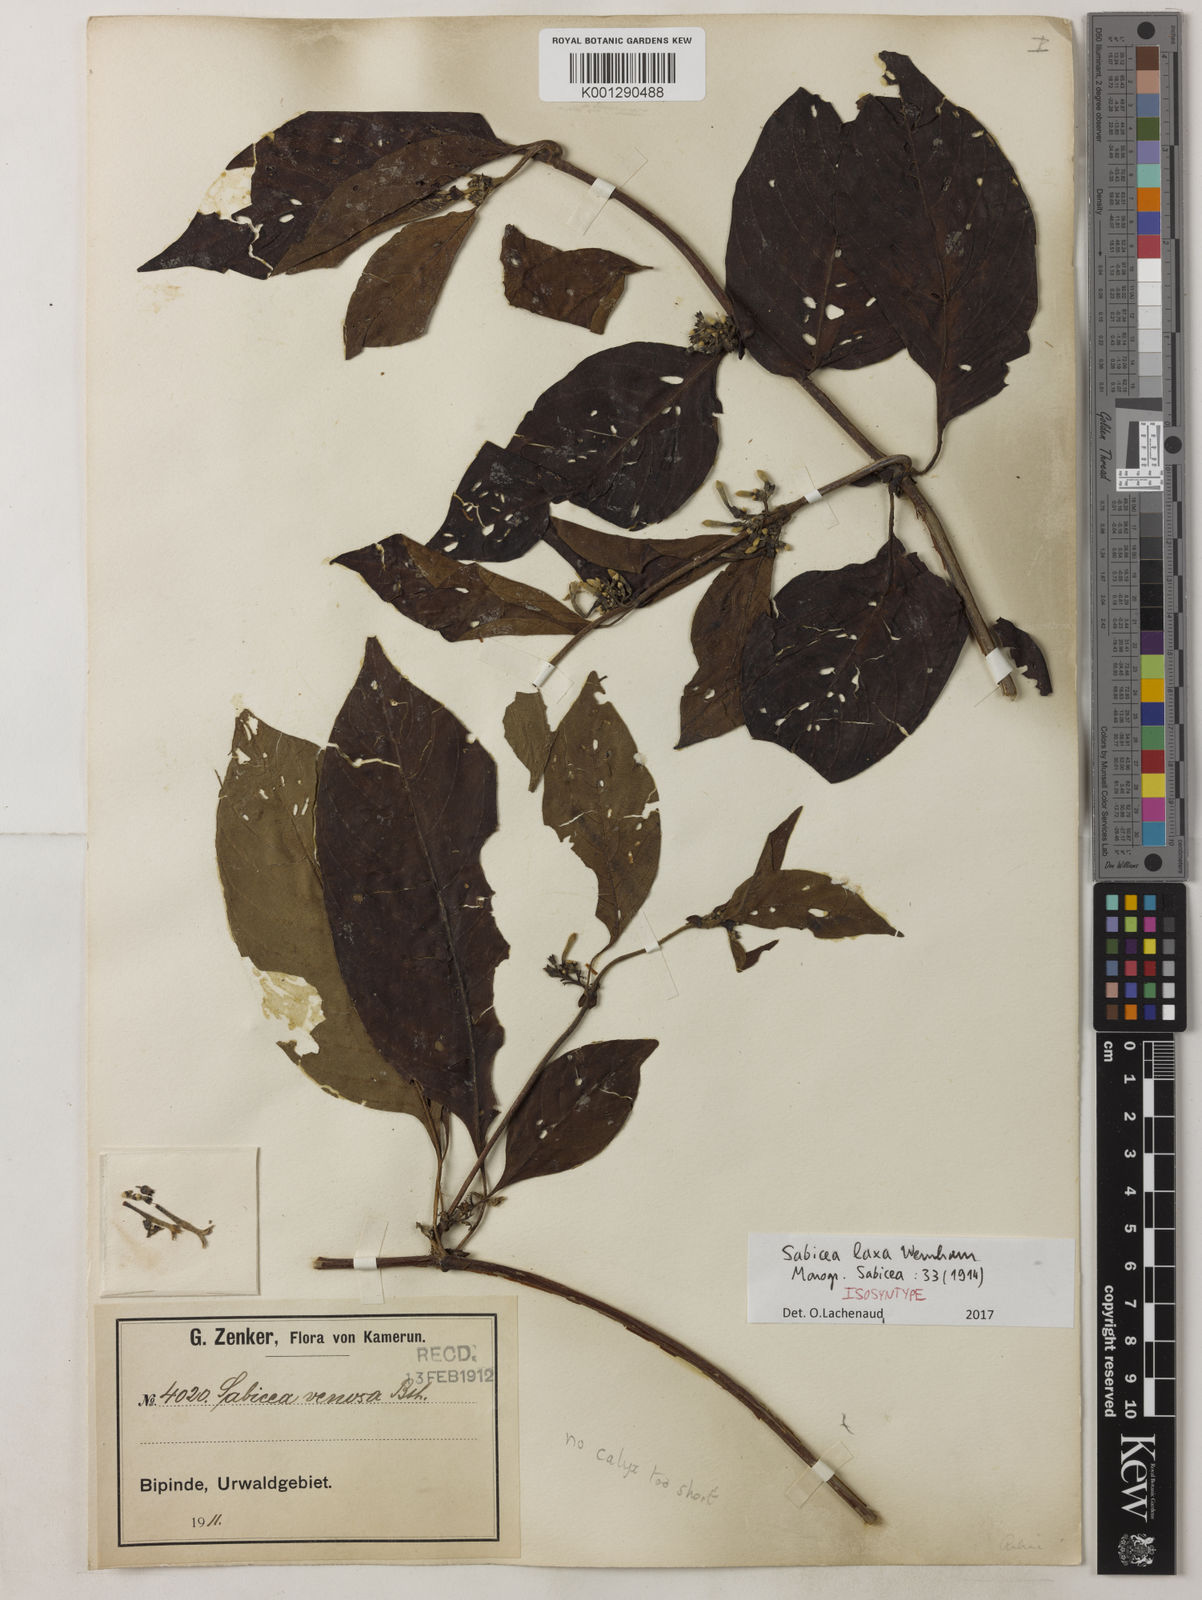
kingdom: Plantae
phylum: Tracheophyta
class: Magnoliopsida
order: Gentianales
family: Rubiaceae
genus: Sabicea
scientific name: Sabicea laxa
